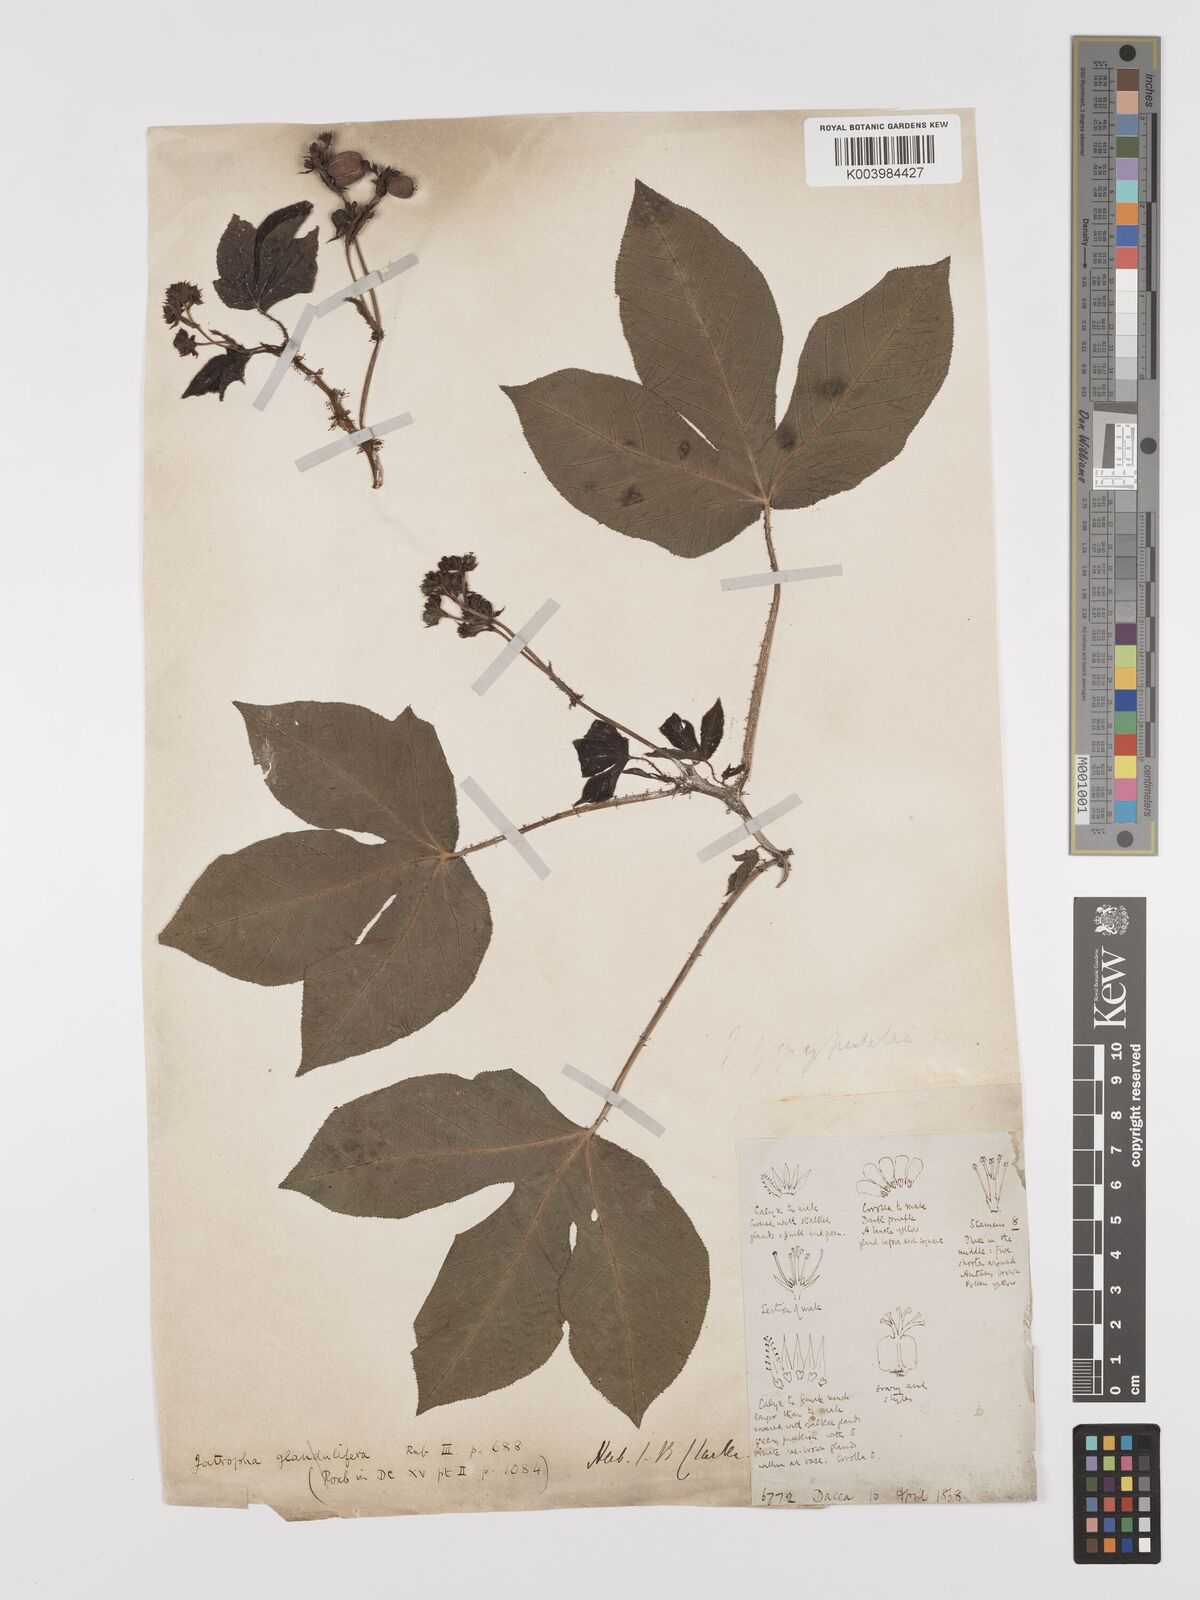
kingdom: Plantae
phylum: Tracheophyta
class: Magnoliopsida
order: Malpighiales
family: Euphorbiaceae
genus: Jatropha
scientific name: Jatropha gossypiifolia
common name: Bellyache bush
